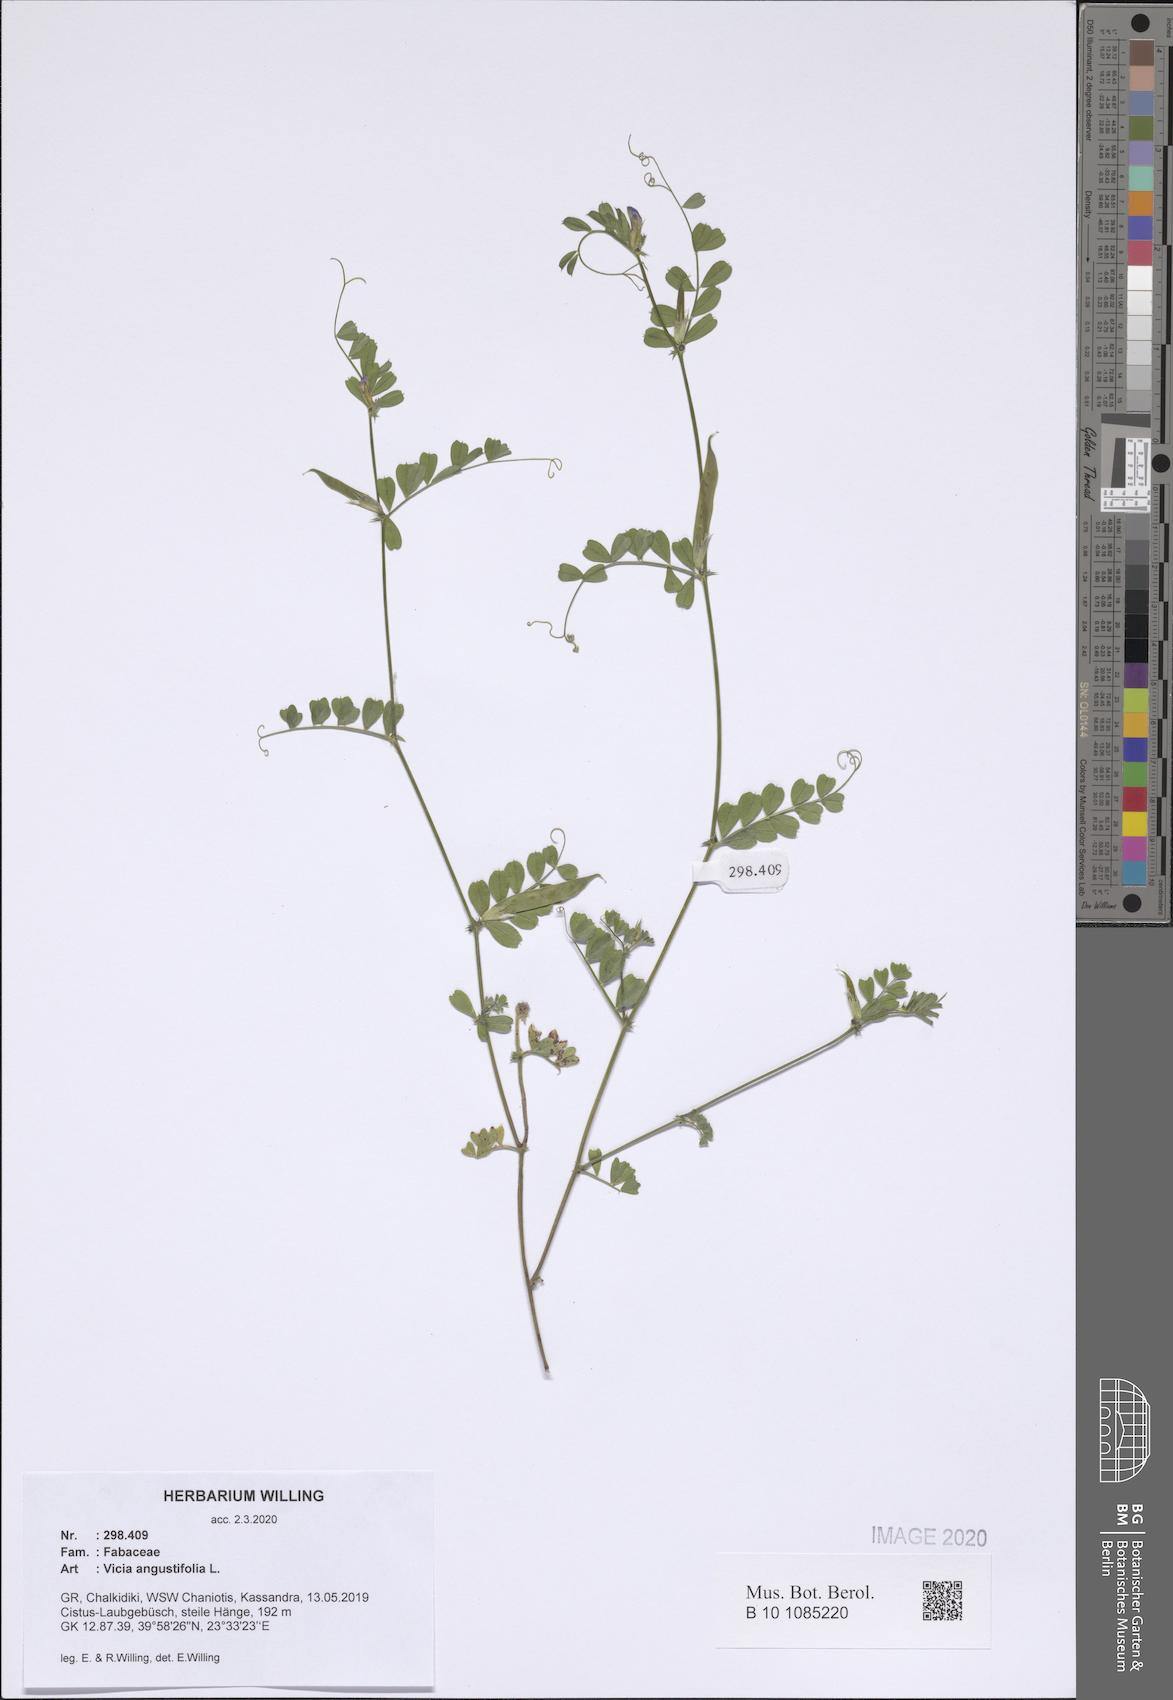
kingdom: Plantae
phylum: Tracheophyta
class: Magnoliopsida
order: Fabales
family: Fabaceae
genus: Vicia
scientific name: Vicia sativa
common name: Garden vetch
